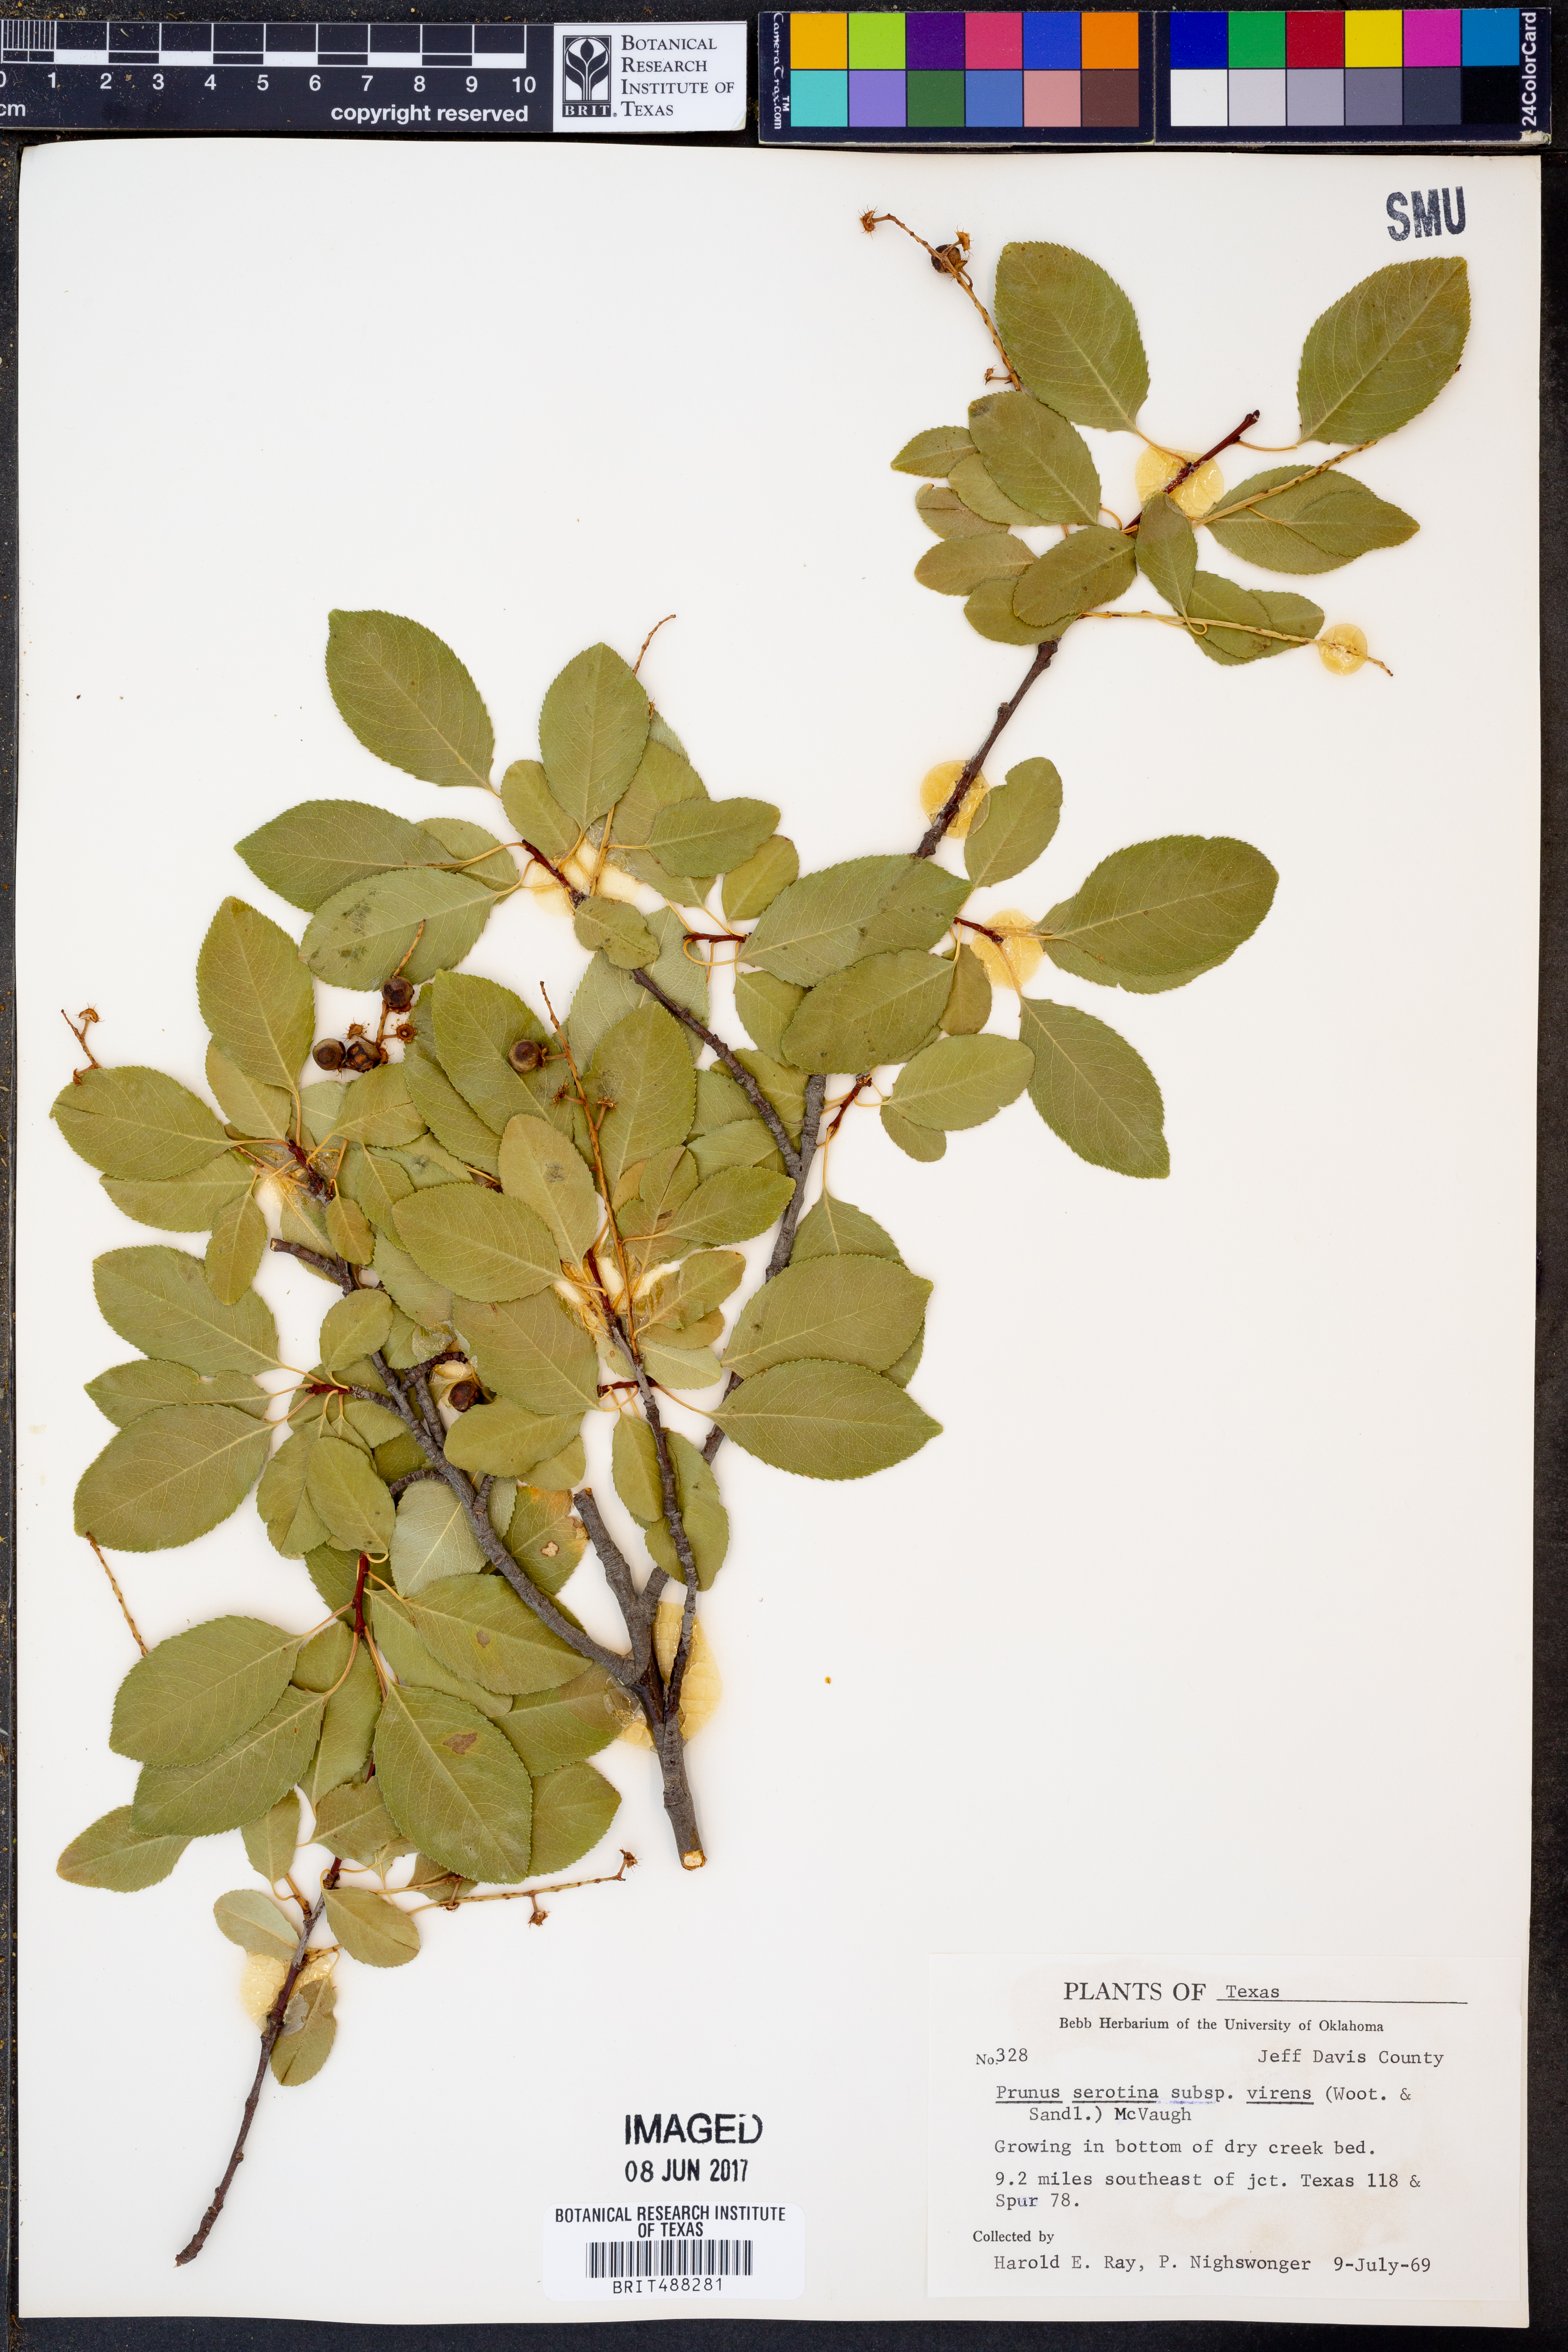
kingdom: Plantae
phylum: Tracheophyta
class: Magnoliopsida
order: Rosales
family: Rosaceae
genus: Prunus
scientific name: Prunus serotina
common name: Black cherry
